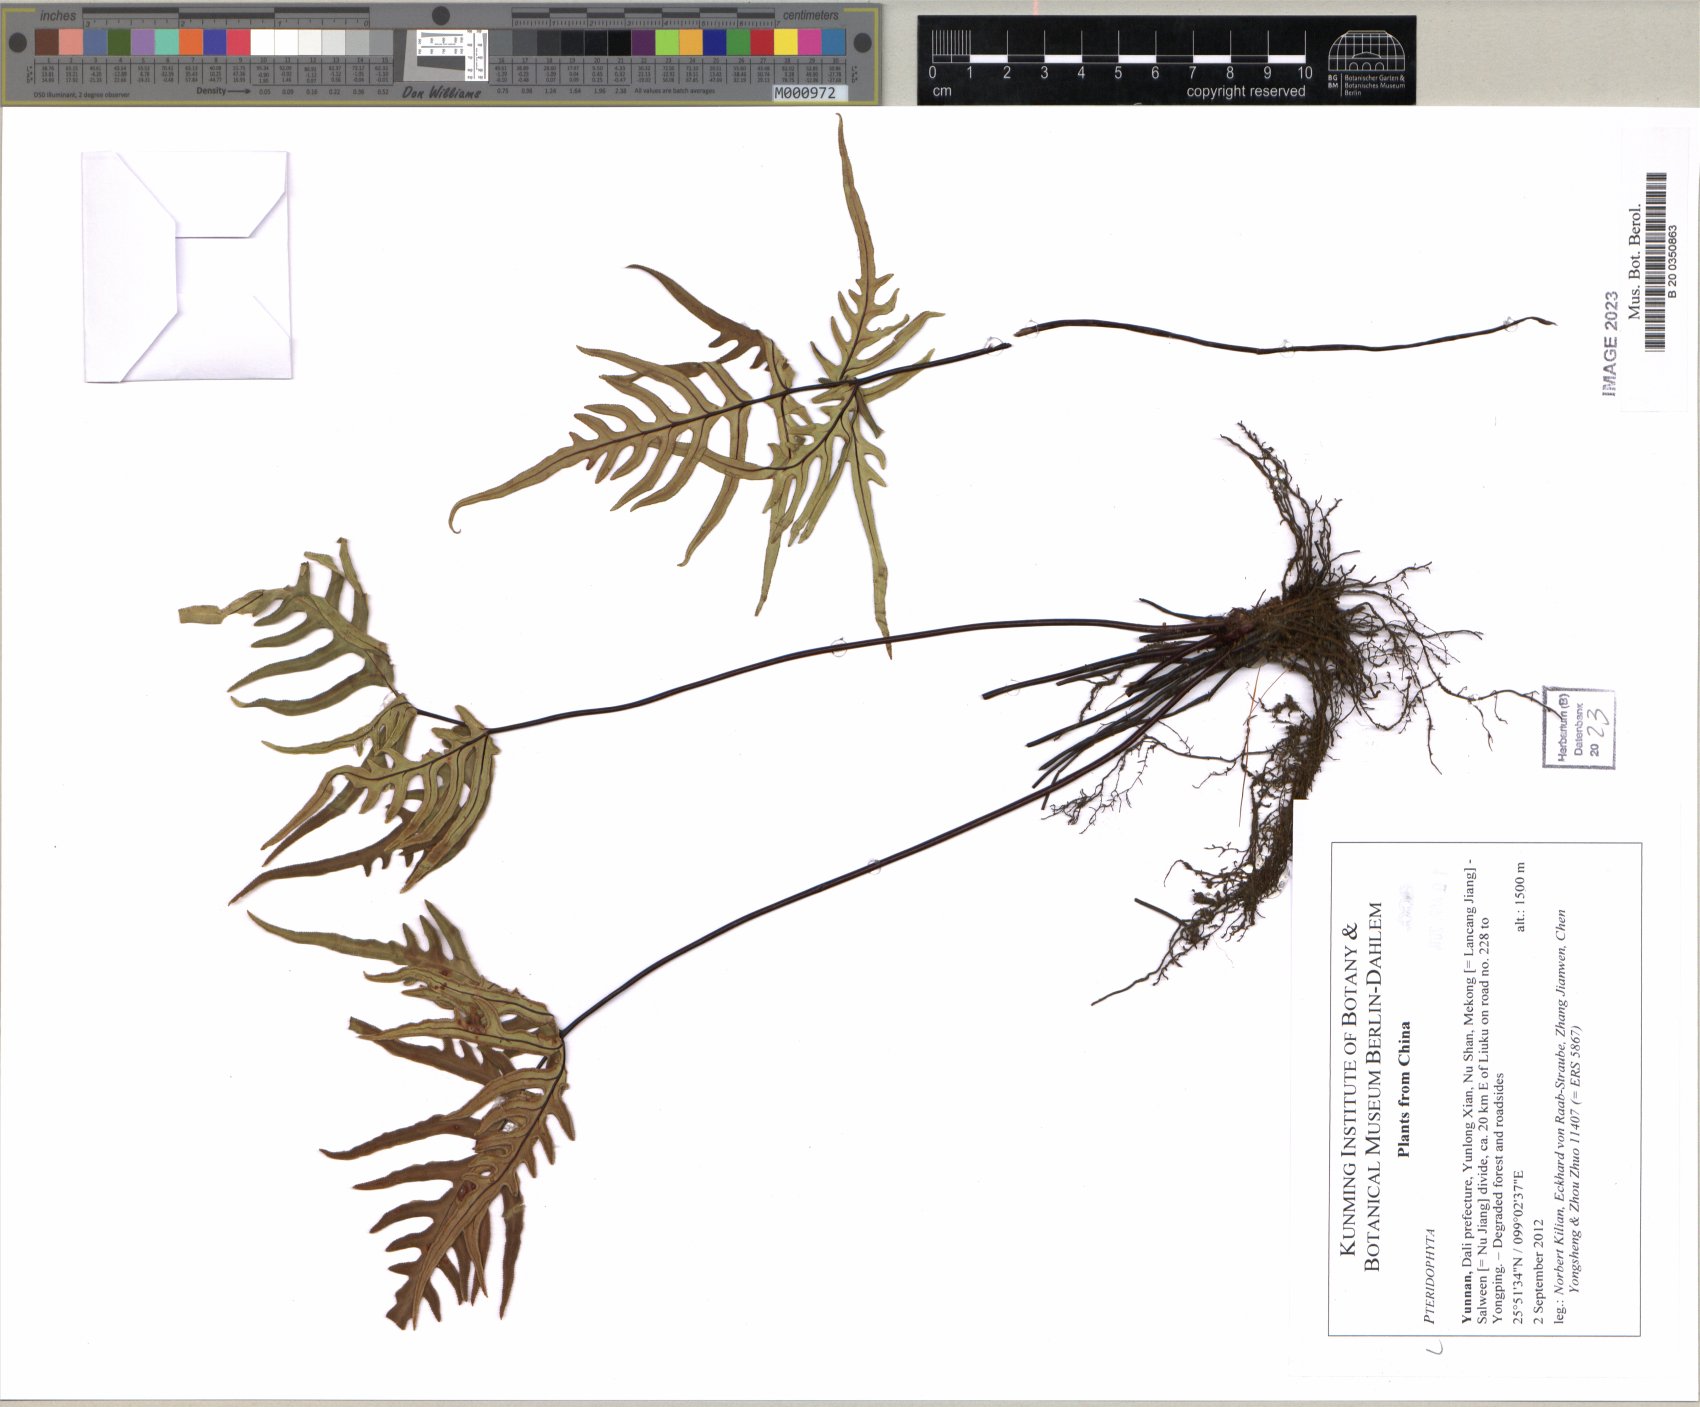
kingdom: Plantae
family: Pteridophyta
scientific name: Pteridophyta
